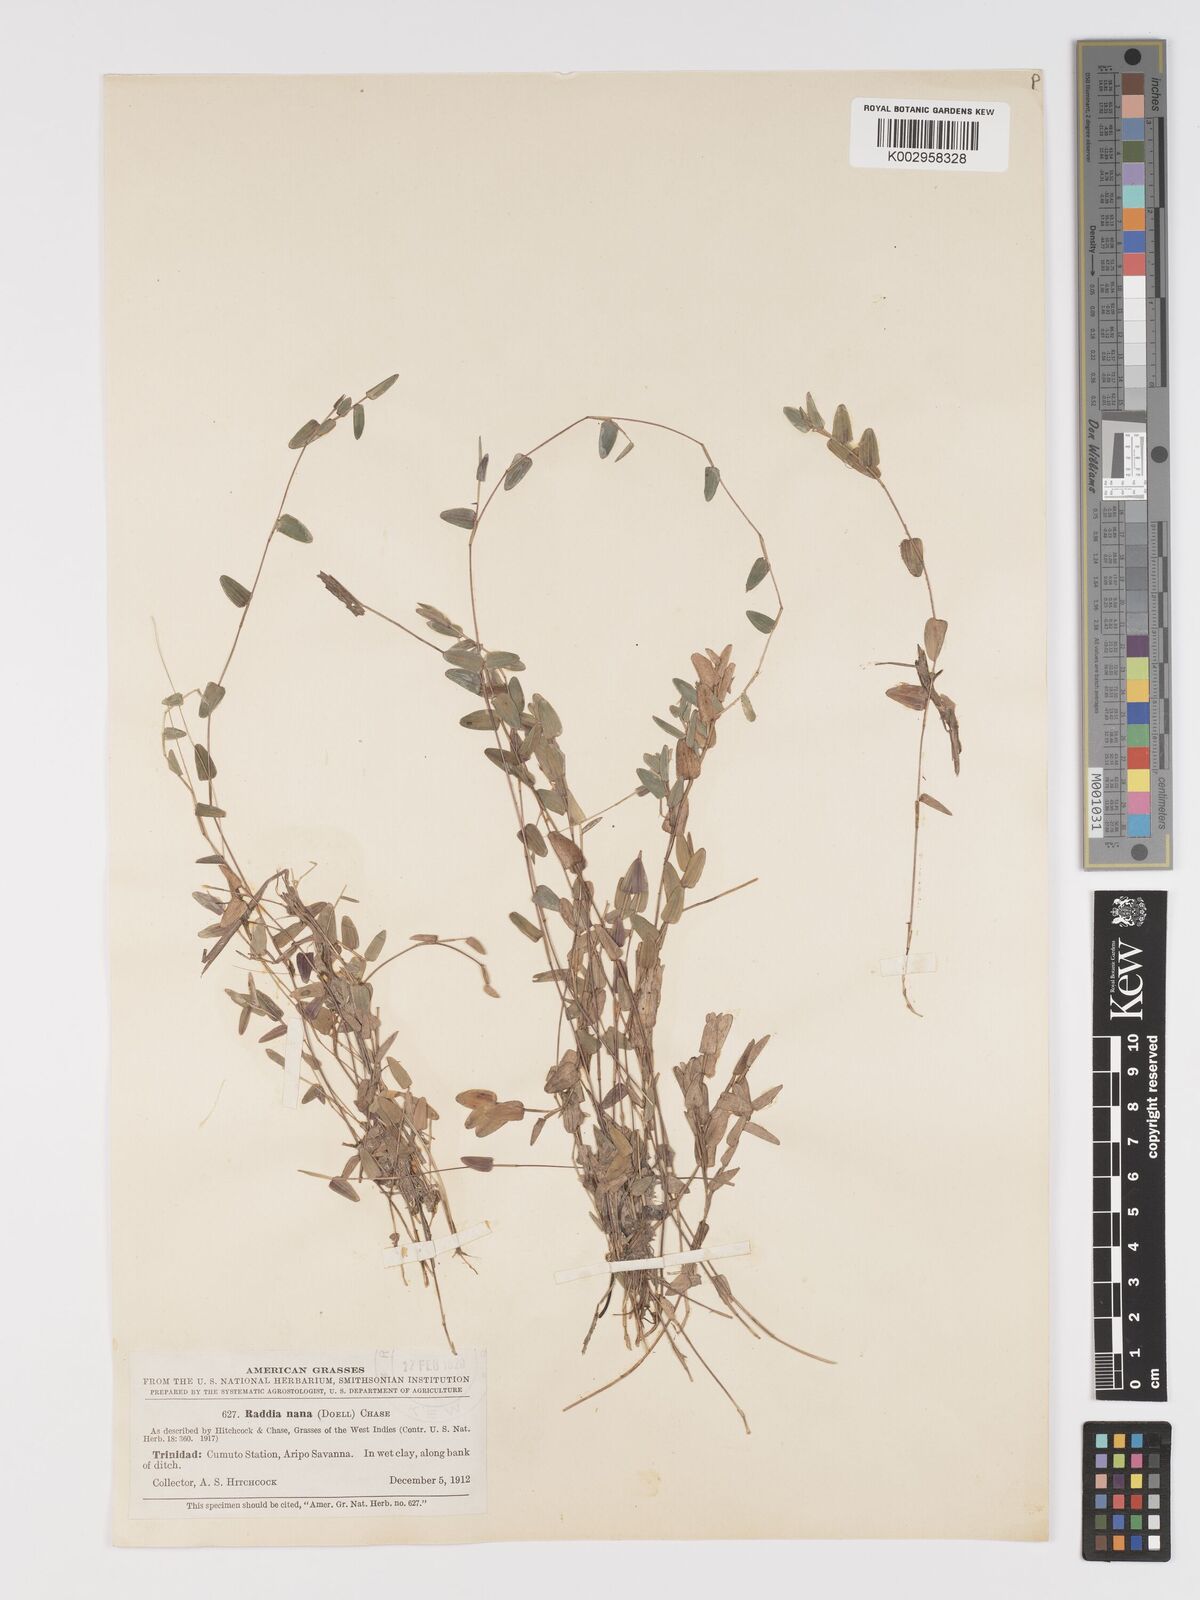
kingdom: Plantae
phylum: Tracheophyta
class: Liliopsida
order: Poales
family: Poaceae
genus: Raddiella
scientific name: Raddiella esenbeckii
